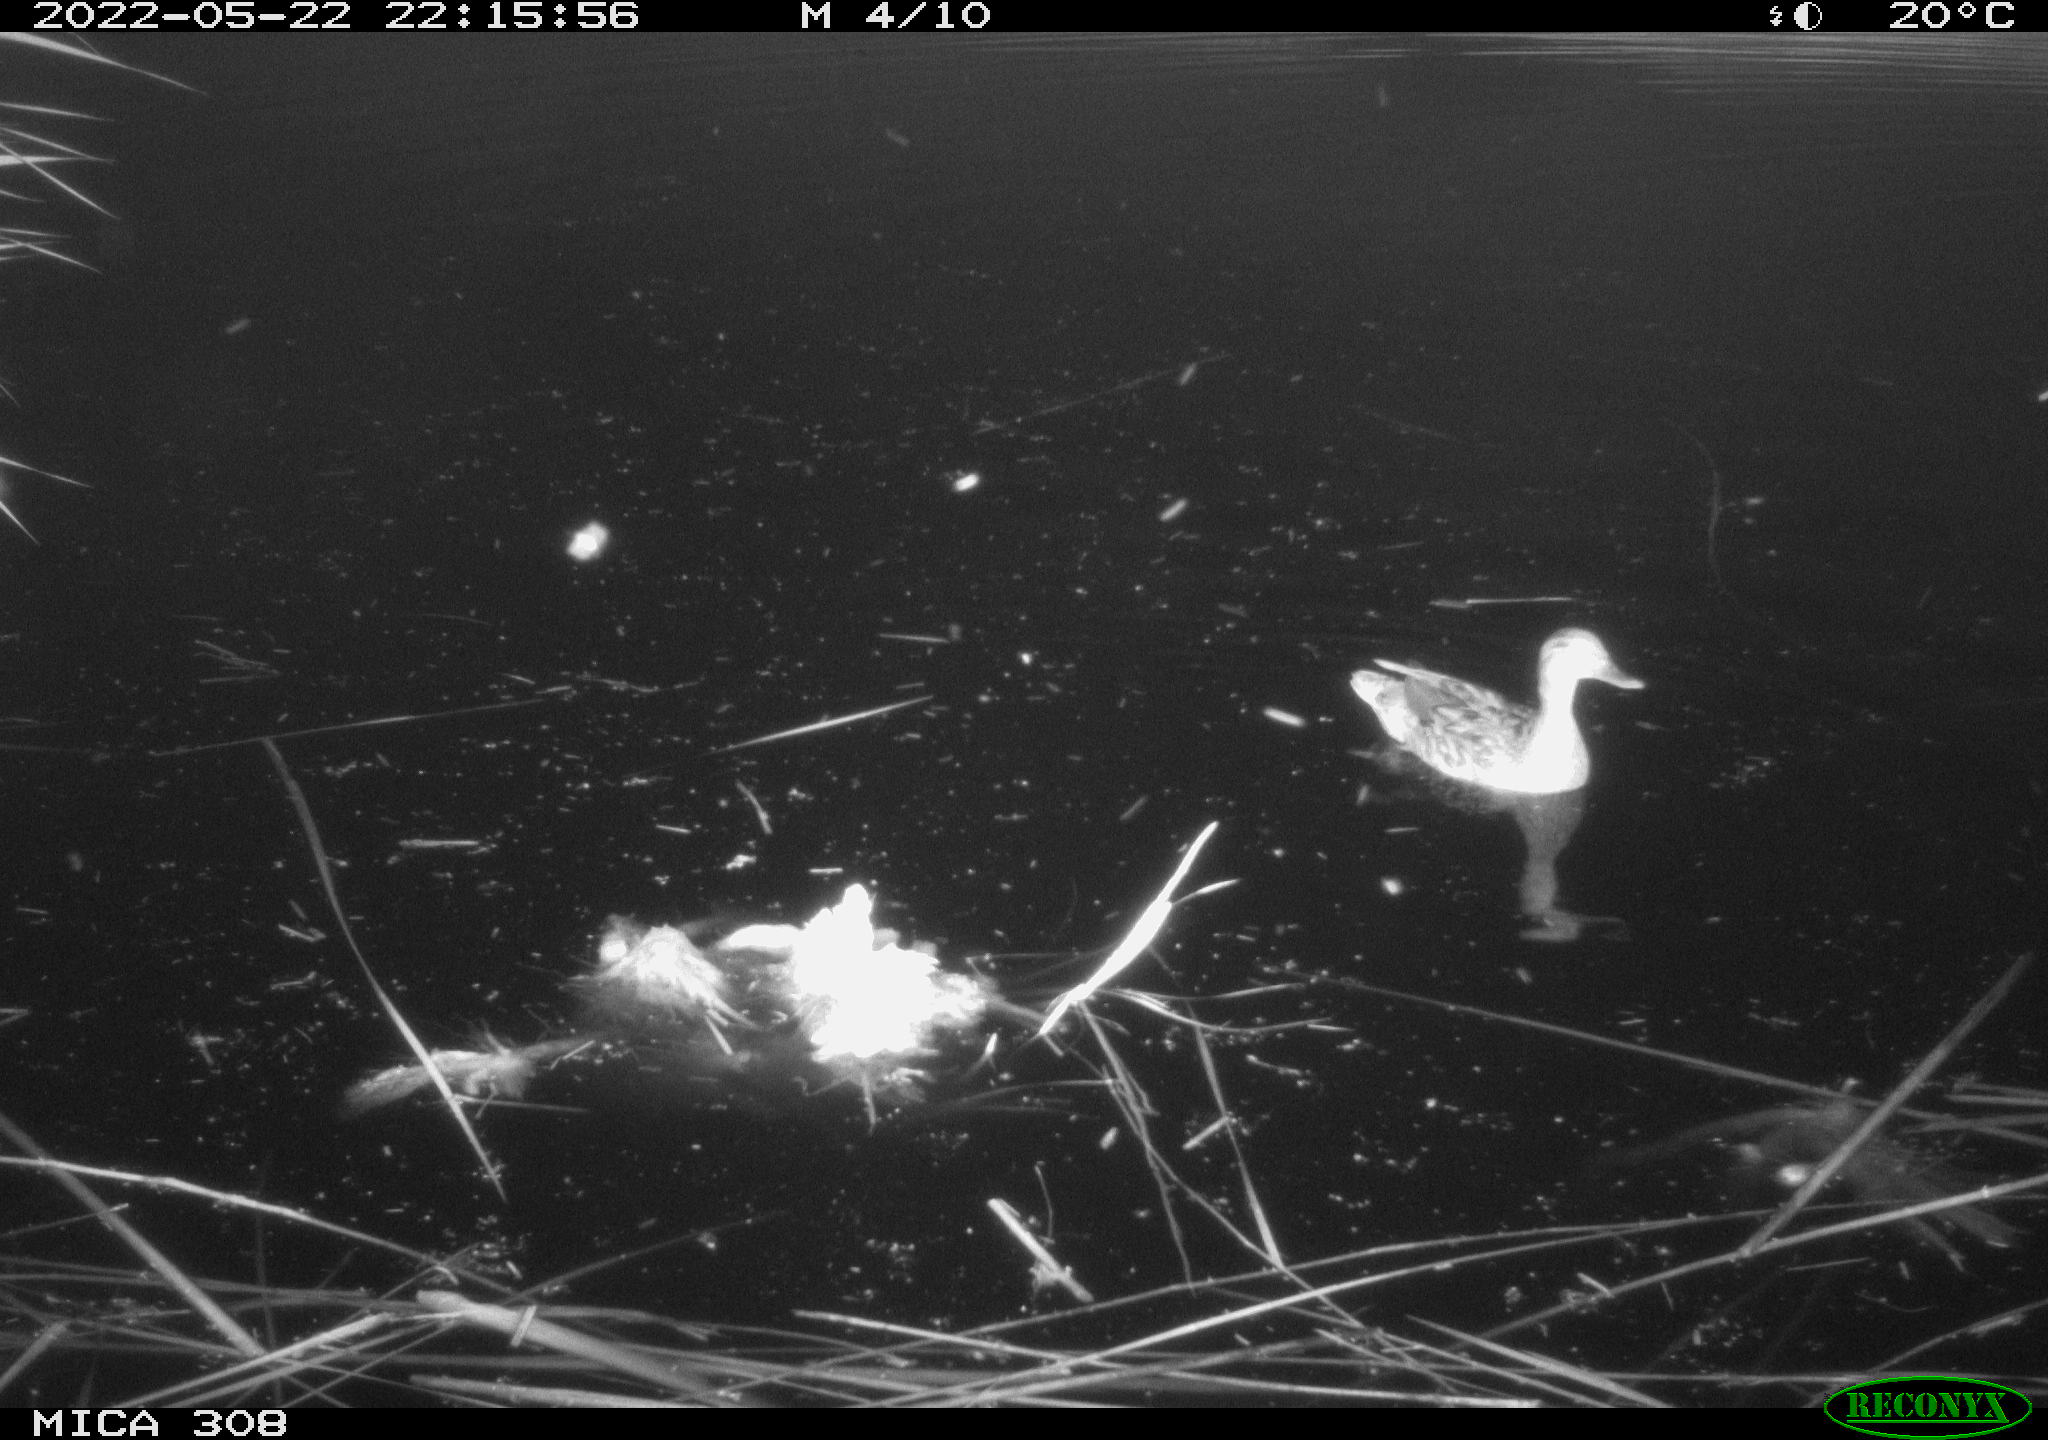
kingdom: Animalia
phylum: Chordata
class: Aves
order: Anseriformes
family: Anatidae
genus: Anas
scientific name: Anas platyrhynchos
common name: Mallard
